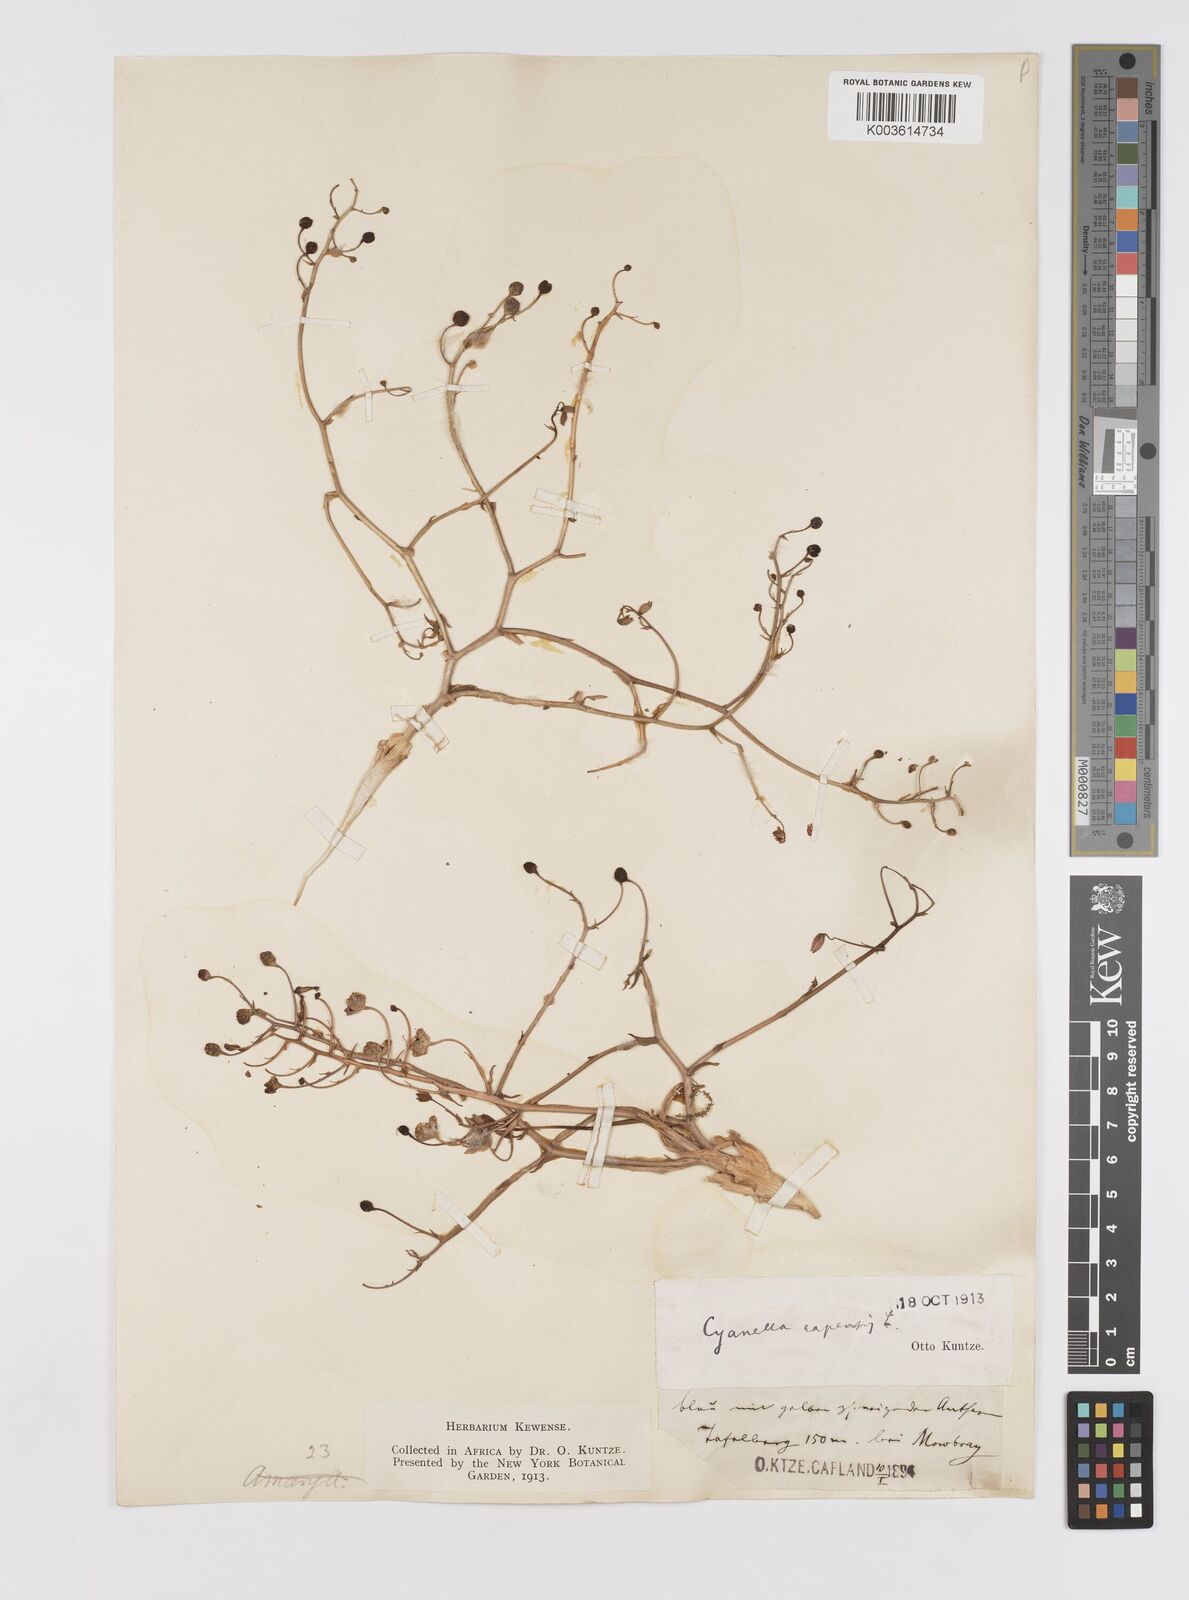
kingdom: Plantae
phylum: Tracheophyta
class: Liliopsida
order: Asparagales
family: Tecophilaeaceae
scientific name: Tecophilaeaceae
